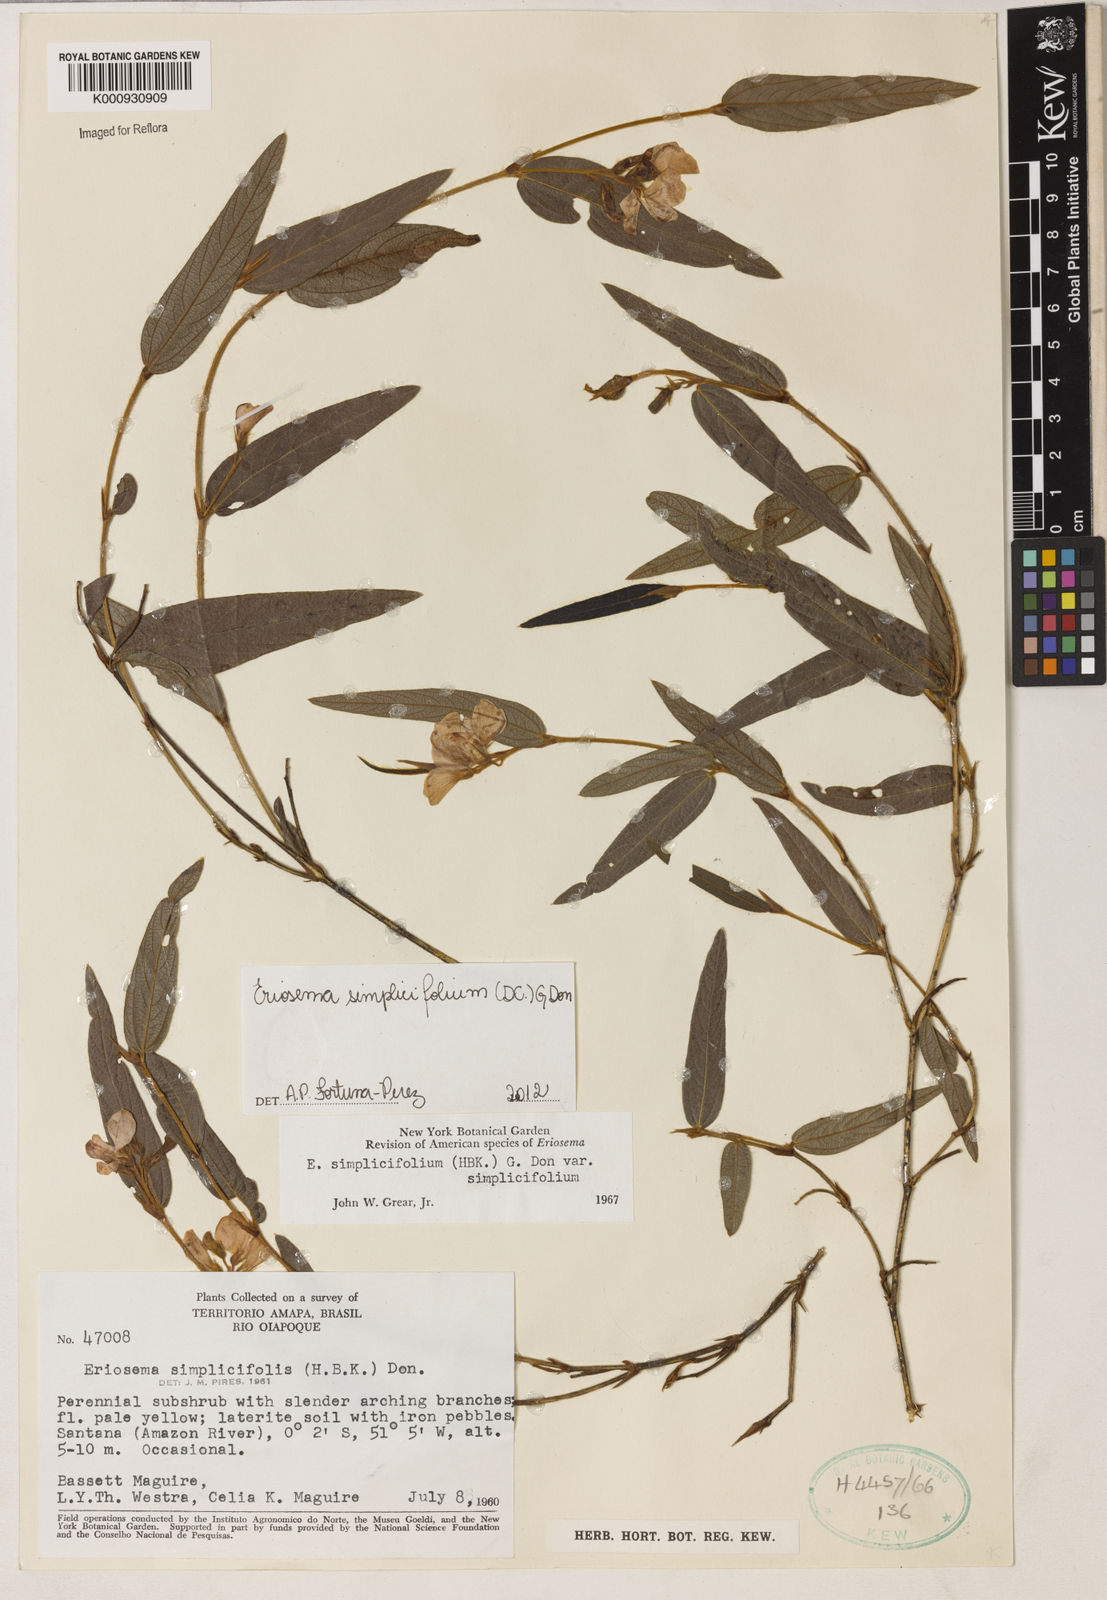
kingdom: Plantae
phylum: Tracheophyta
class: Magnoliopsida
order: Fabales
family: Fabaceae
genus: Eriosema
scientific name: Eriosema simplicifolium
